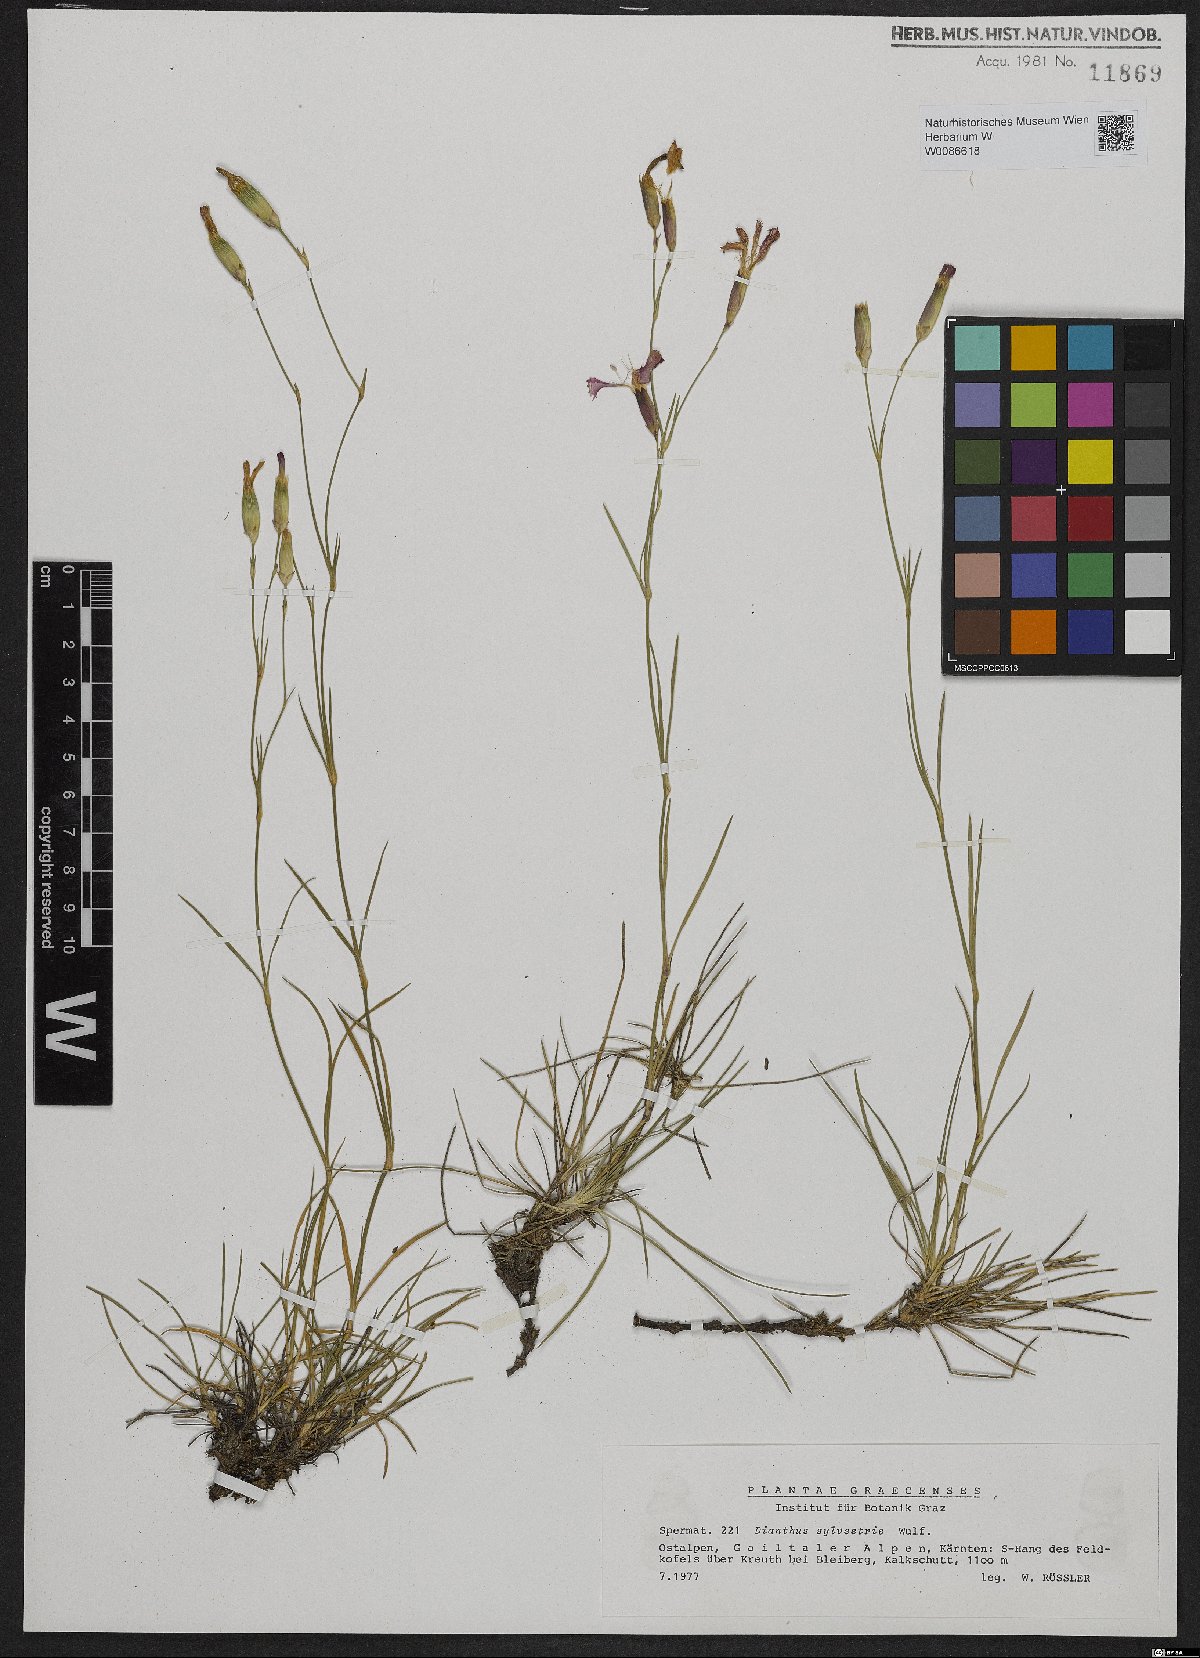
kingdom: Plantae
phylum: Tracheophyta
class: Magnoliopsida
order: Caryophyllales
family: Caryophyllaceae
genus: Dianthus
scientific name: Dianthus sylvestris
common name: Wood pink
